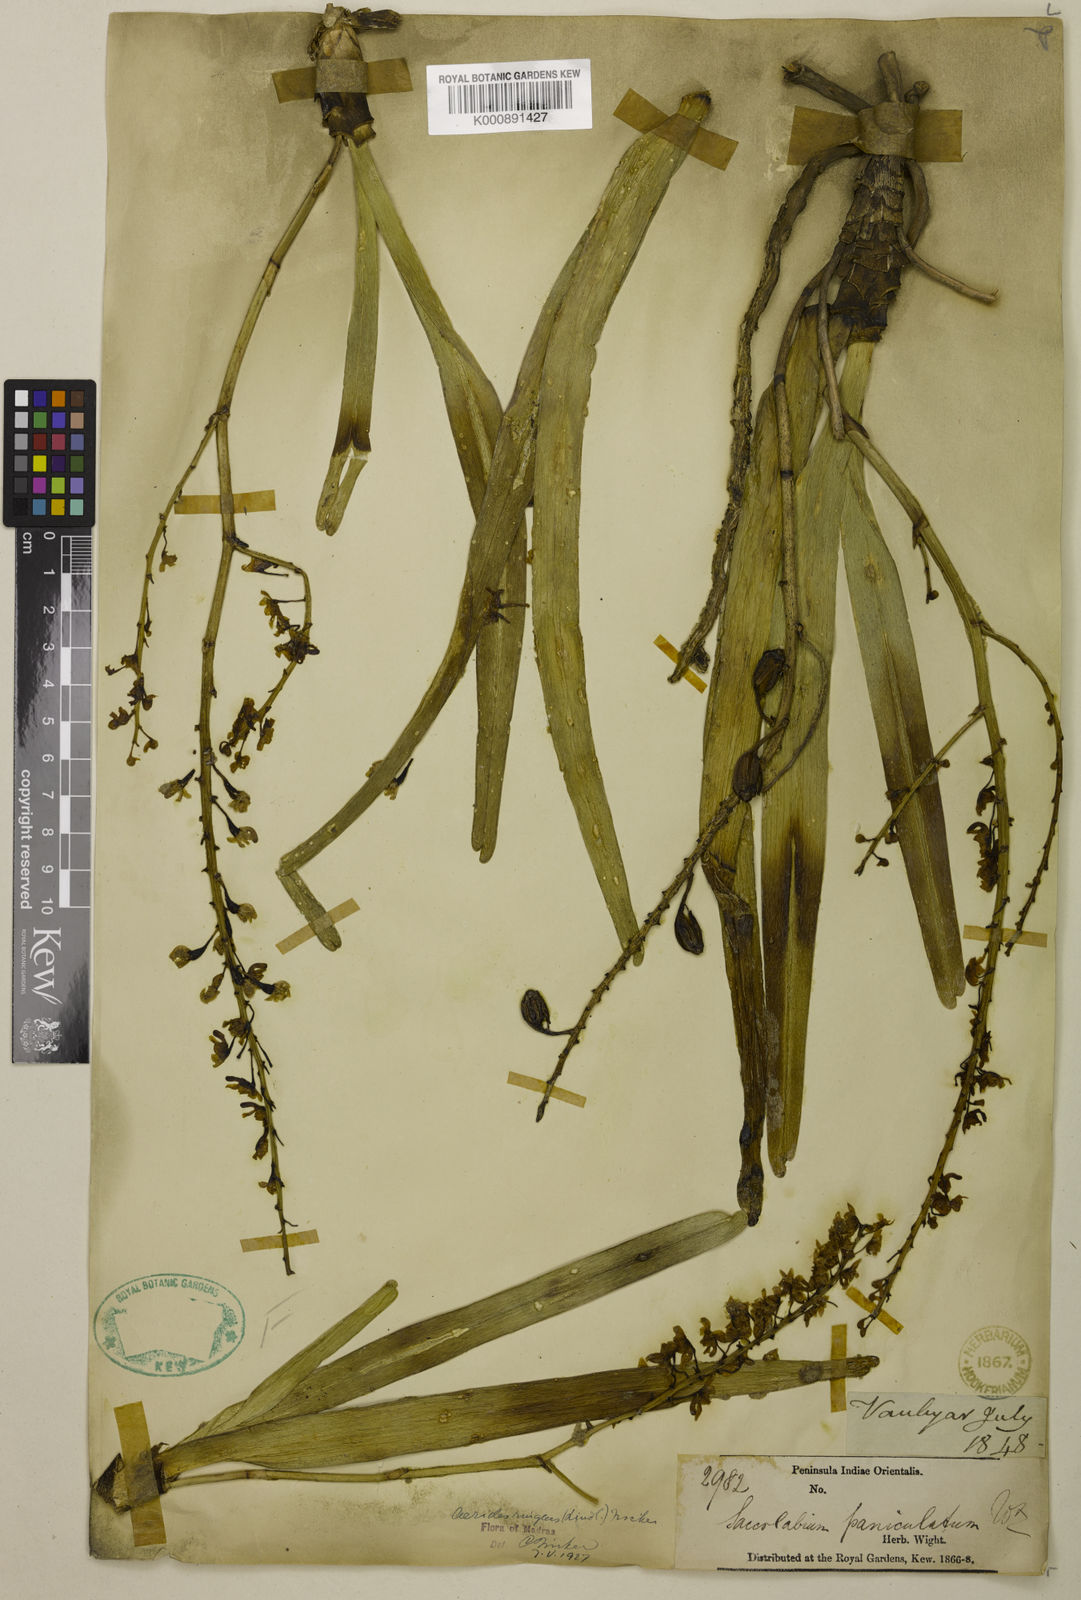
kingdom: Plantae
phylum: Tracheophyta
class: Liliopsida
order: Asparagales
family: Orchidaceae
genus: Aerides
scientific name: Aerides ringens
